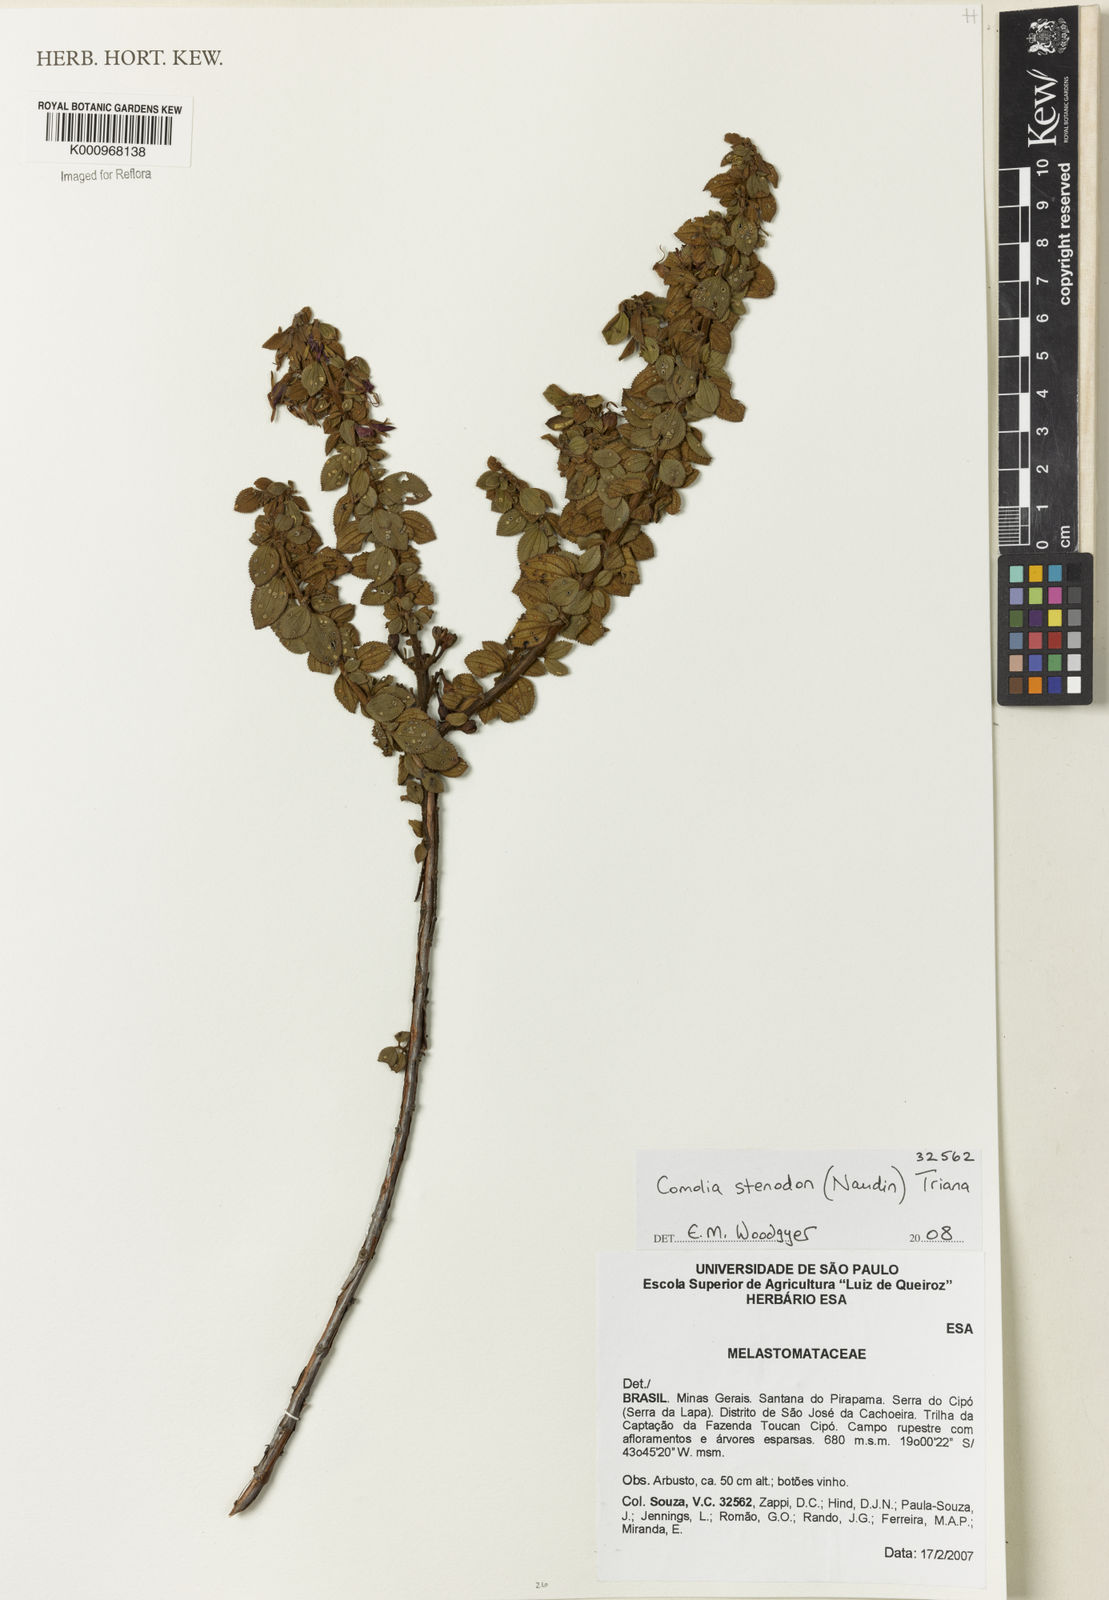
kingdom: Plantae
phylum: Tracheophyta
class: Magnoliopsida
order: Myrtales
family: Melastomataceae
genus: Fritzschia
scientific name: Fritzschia stenodon
